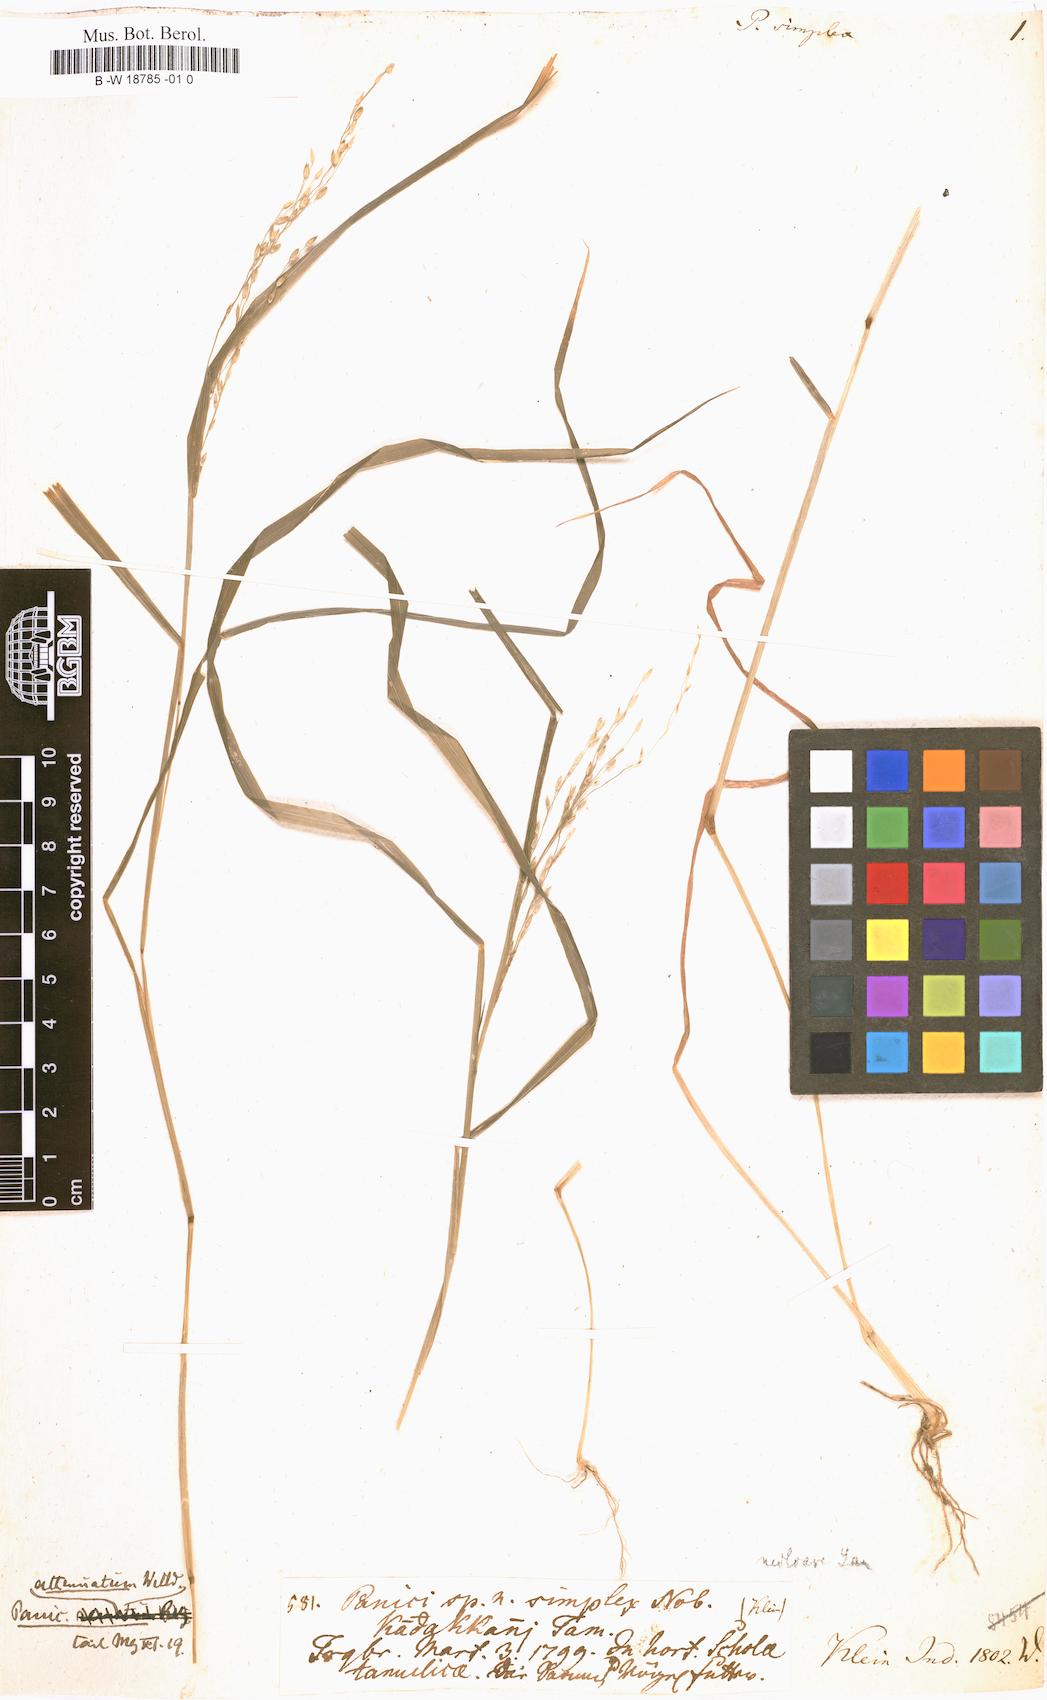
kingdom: Plantae
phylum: Tracheophyta
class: Liliopsida
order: Poales
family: Poaceae
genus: Panicum
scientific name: Panicum
